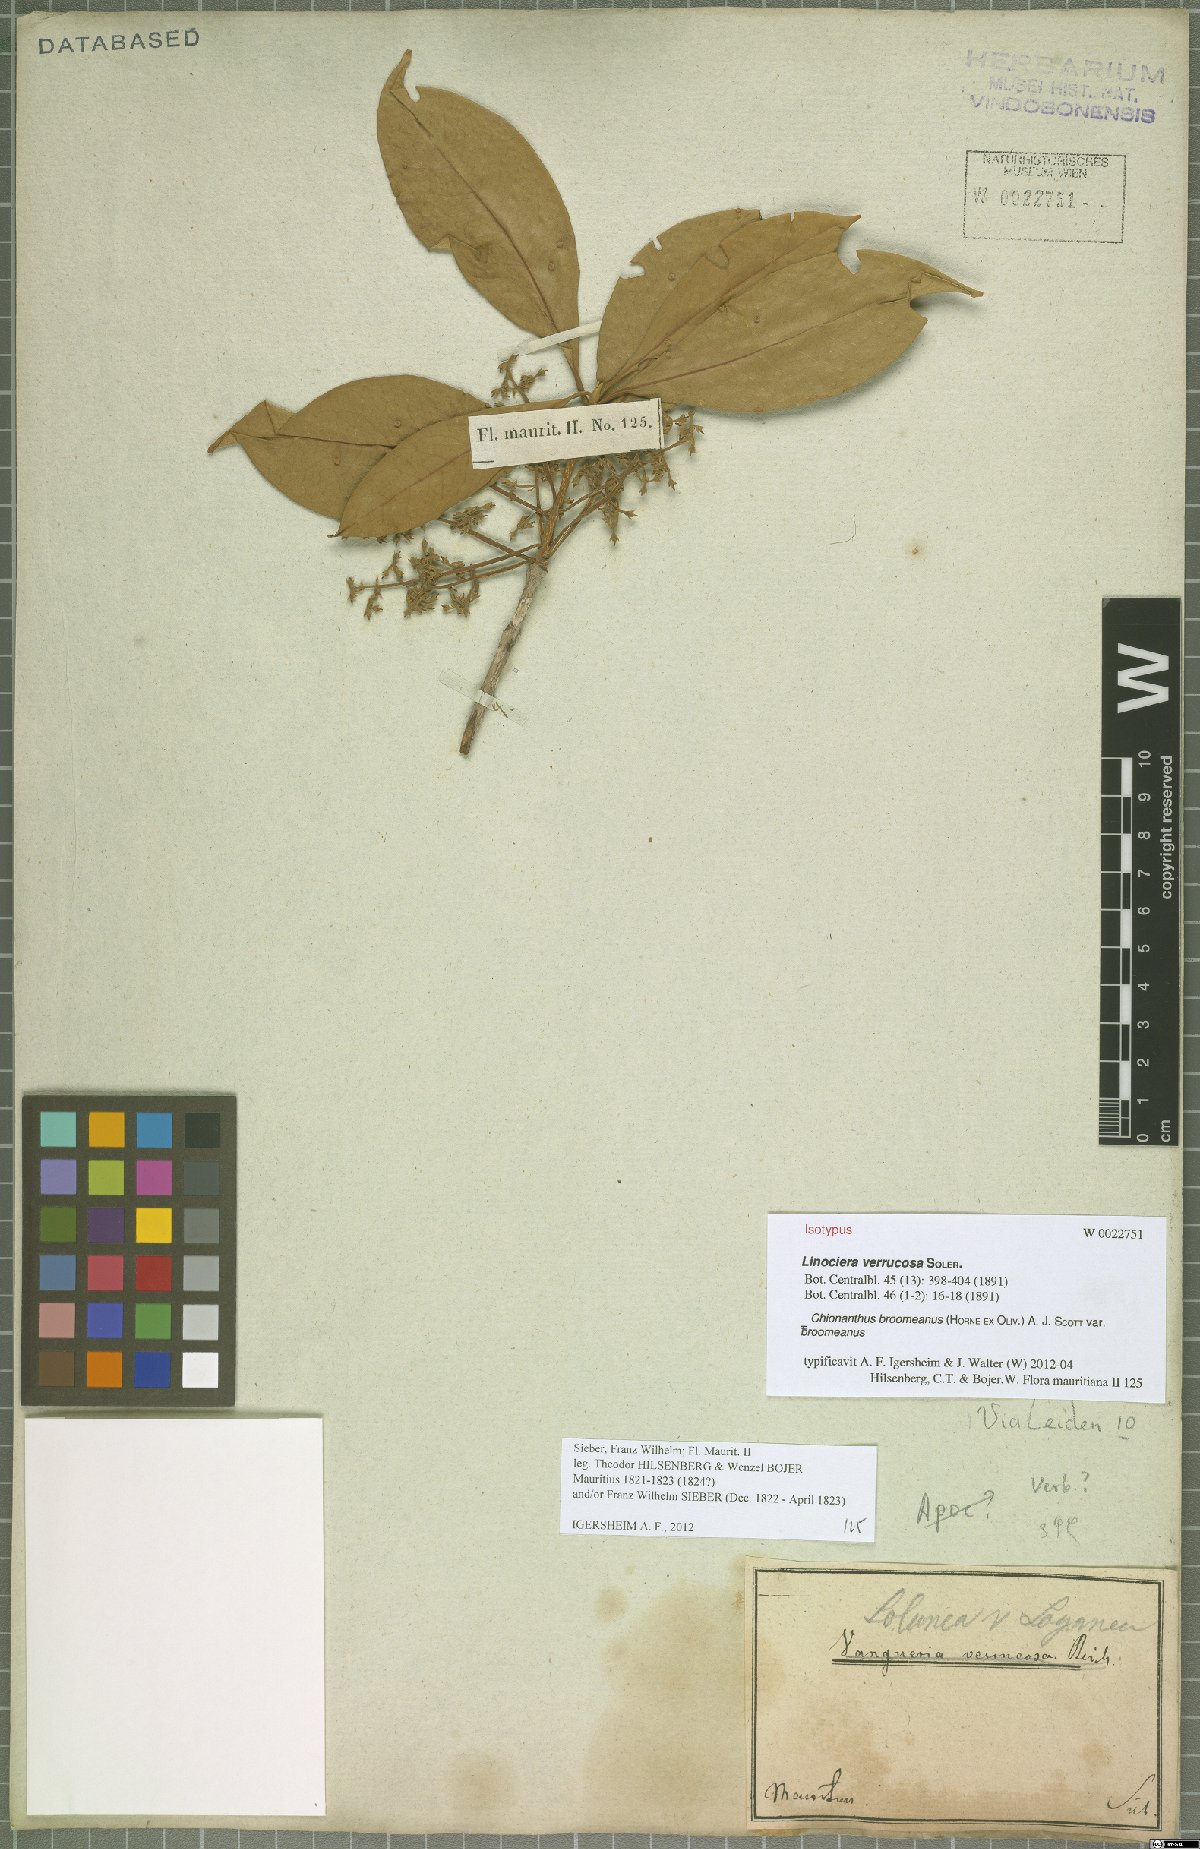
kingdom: Plantae
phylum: Tracheophyta
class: Magnoliopsida
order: Lamiales
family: Oleaceae
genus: Noronhia
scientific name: Noronhia broomeana
